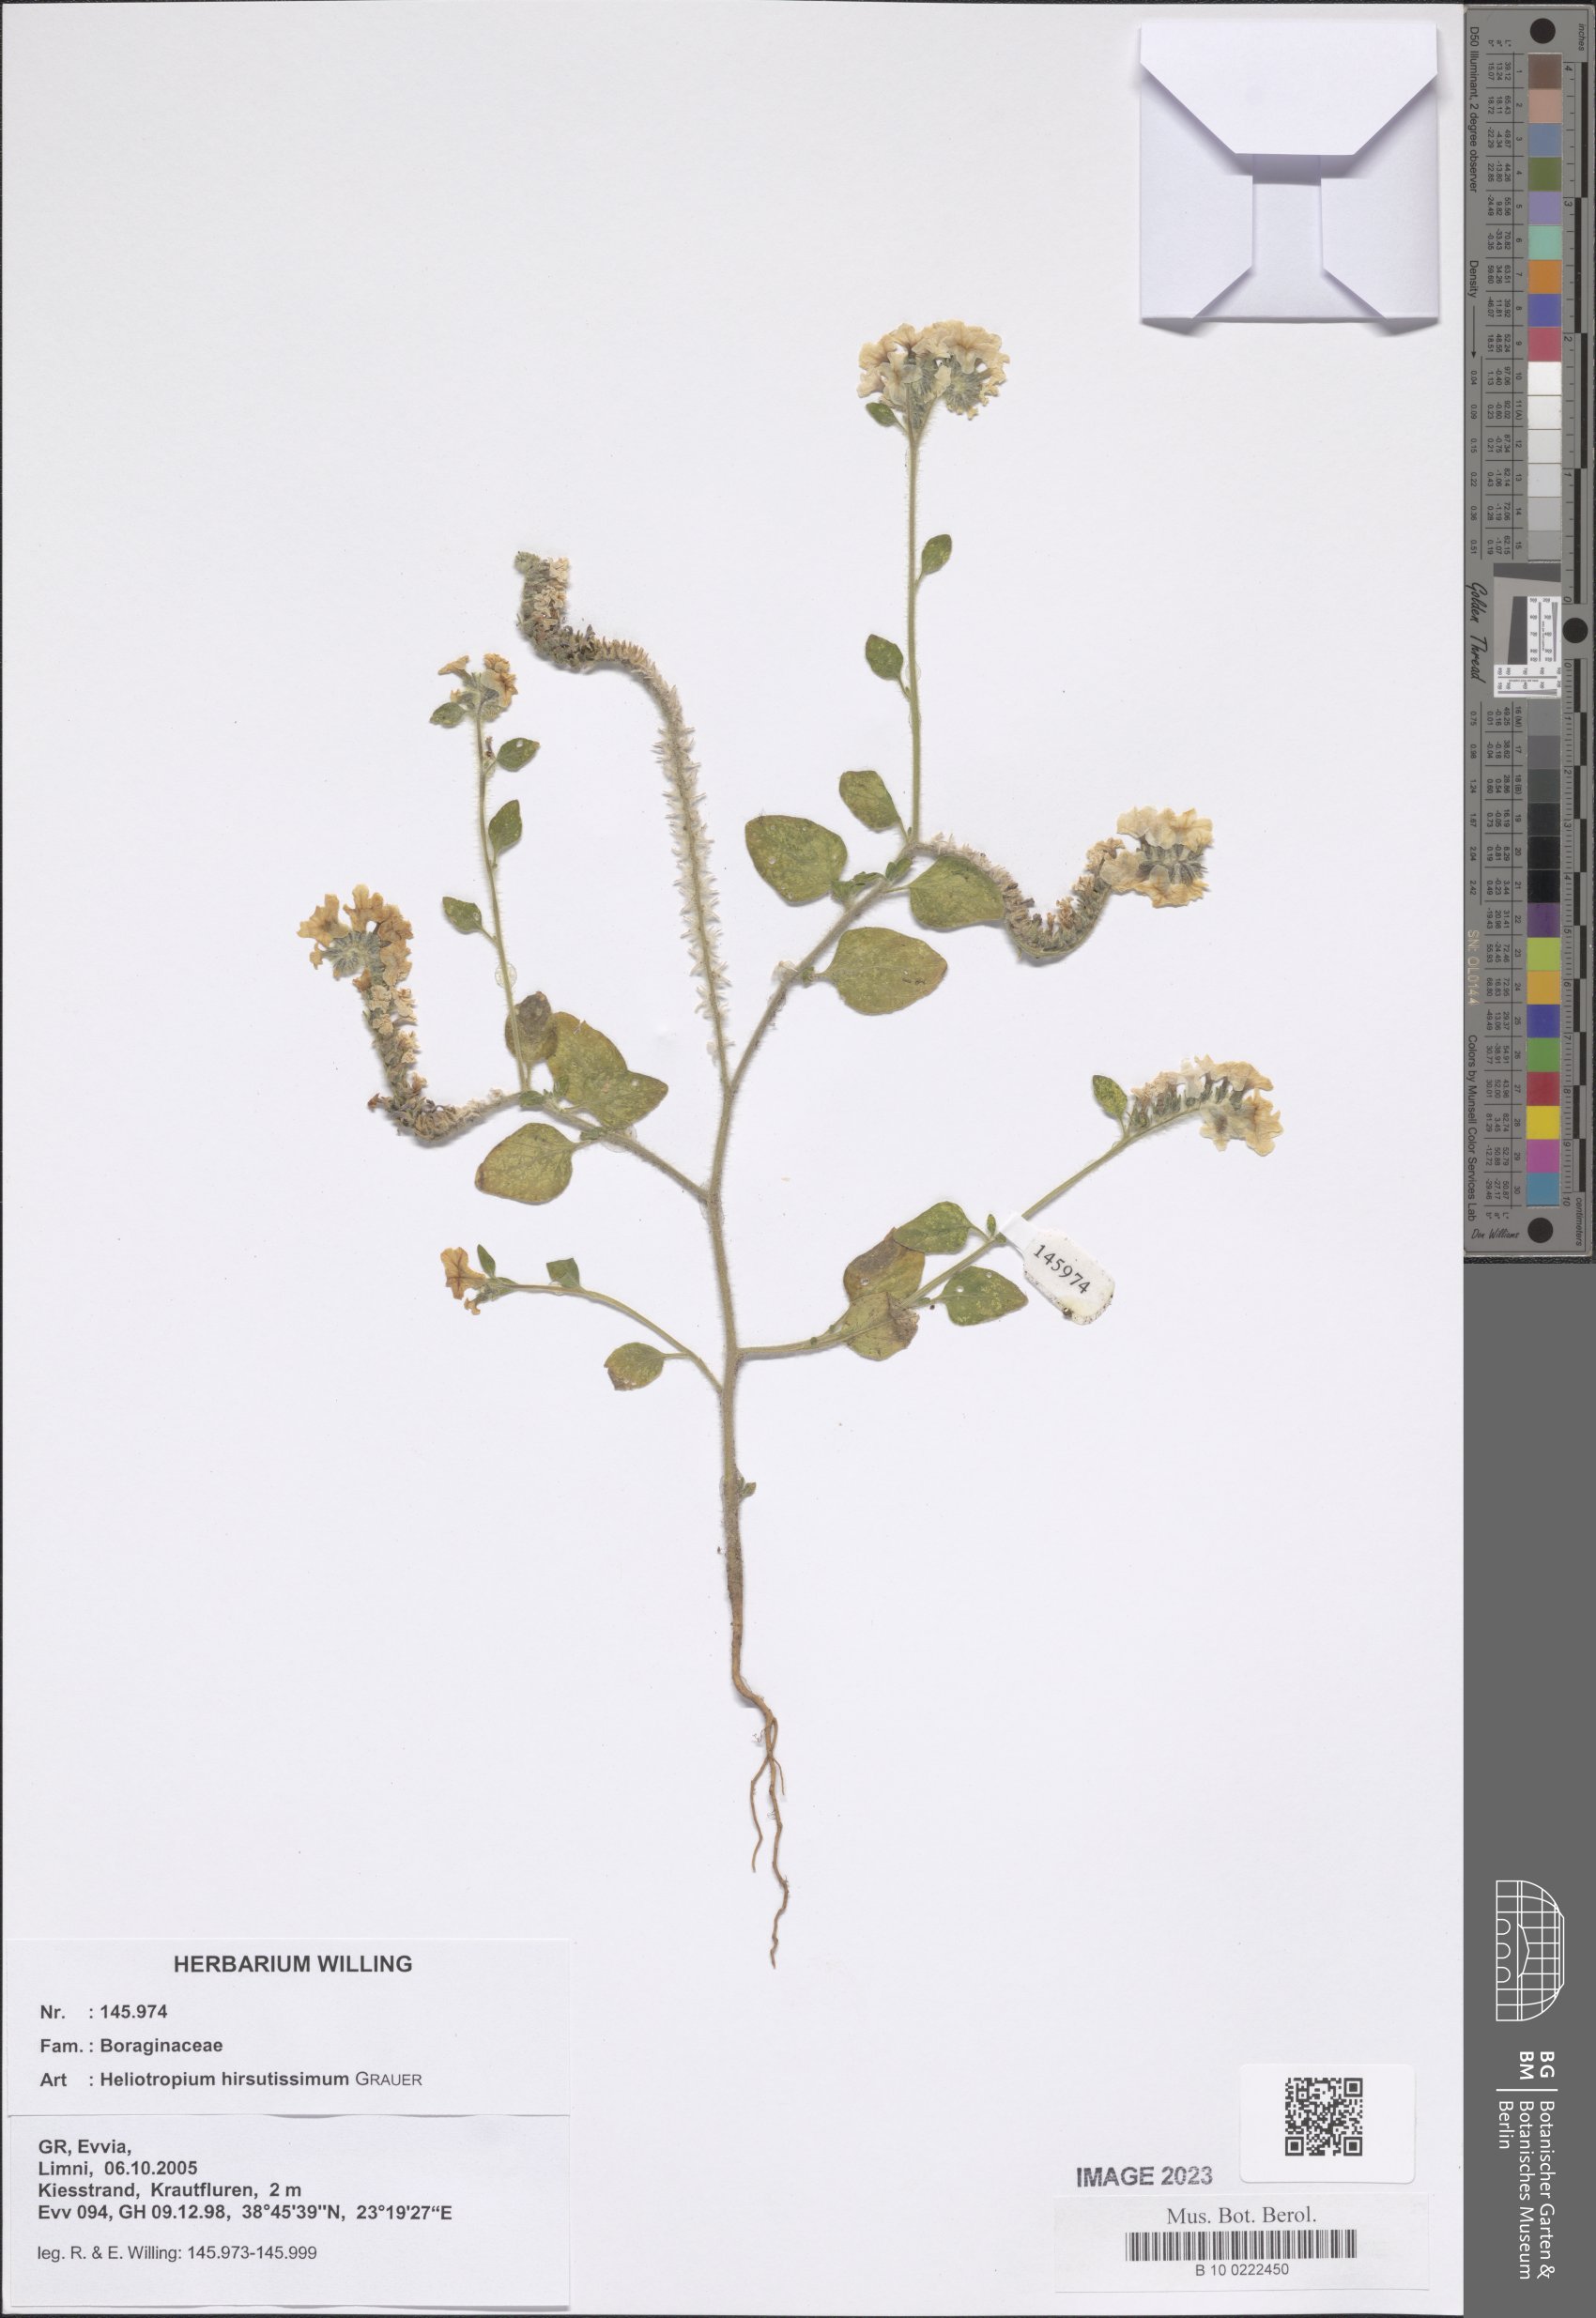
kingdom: Plantae
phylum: Tracheophyta
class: Magnoliopsida
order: Boraginales
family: Heliotropiaceae
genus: Heliotropium
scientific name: Heliotropium hirsutissimum
